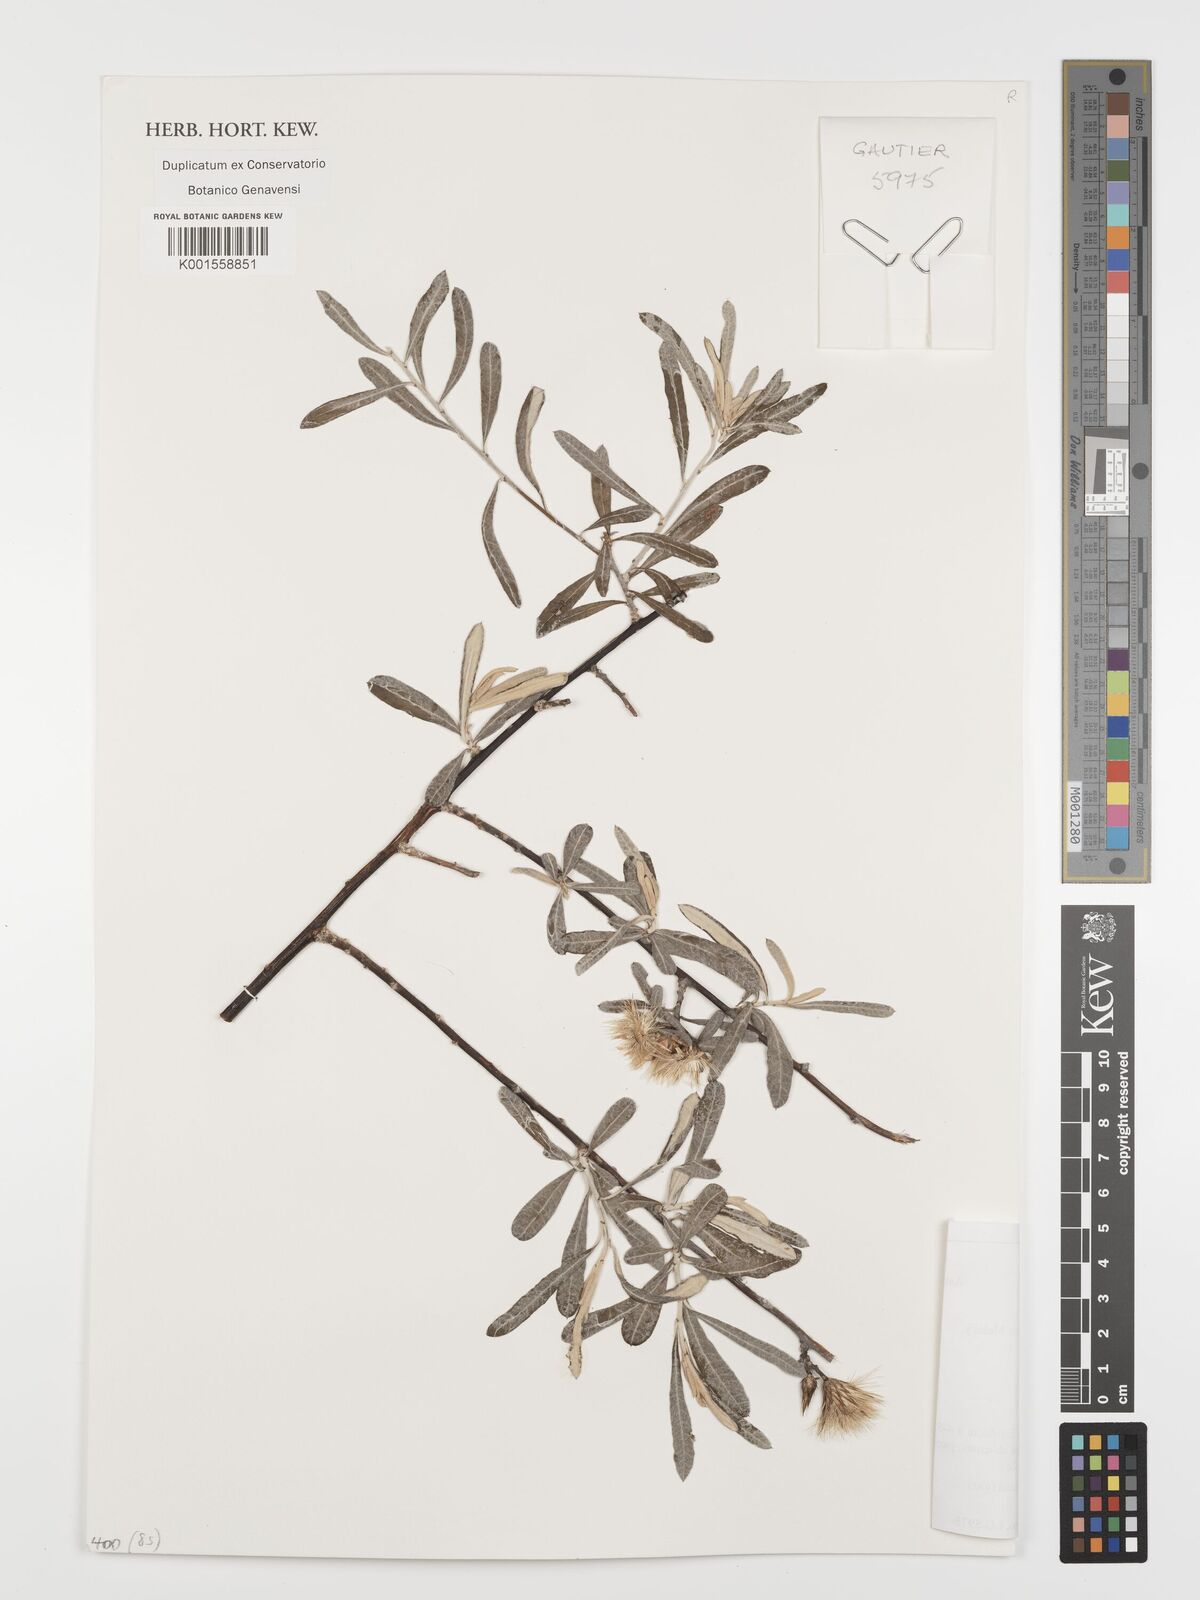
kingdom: Plantae
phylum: Tracheophyta
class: Magnoliopsida
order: Asterales
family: Asteraceae
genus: Dicoma
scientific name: Dicoma incana
